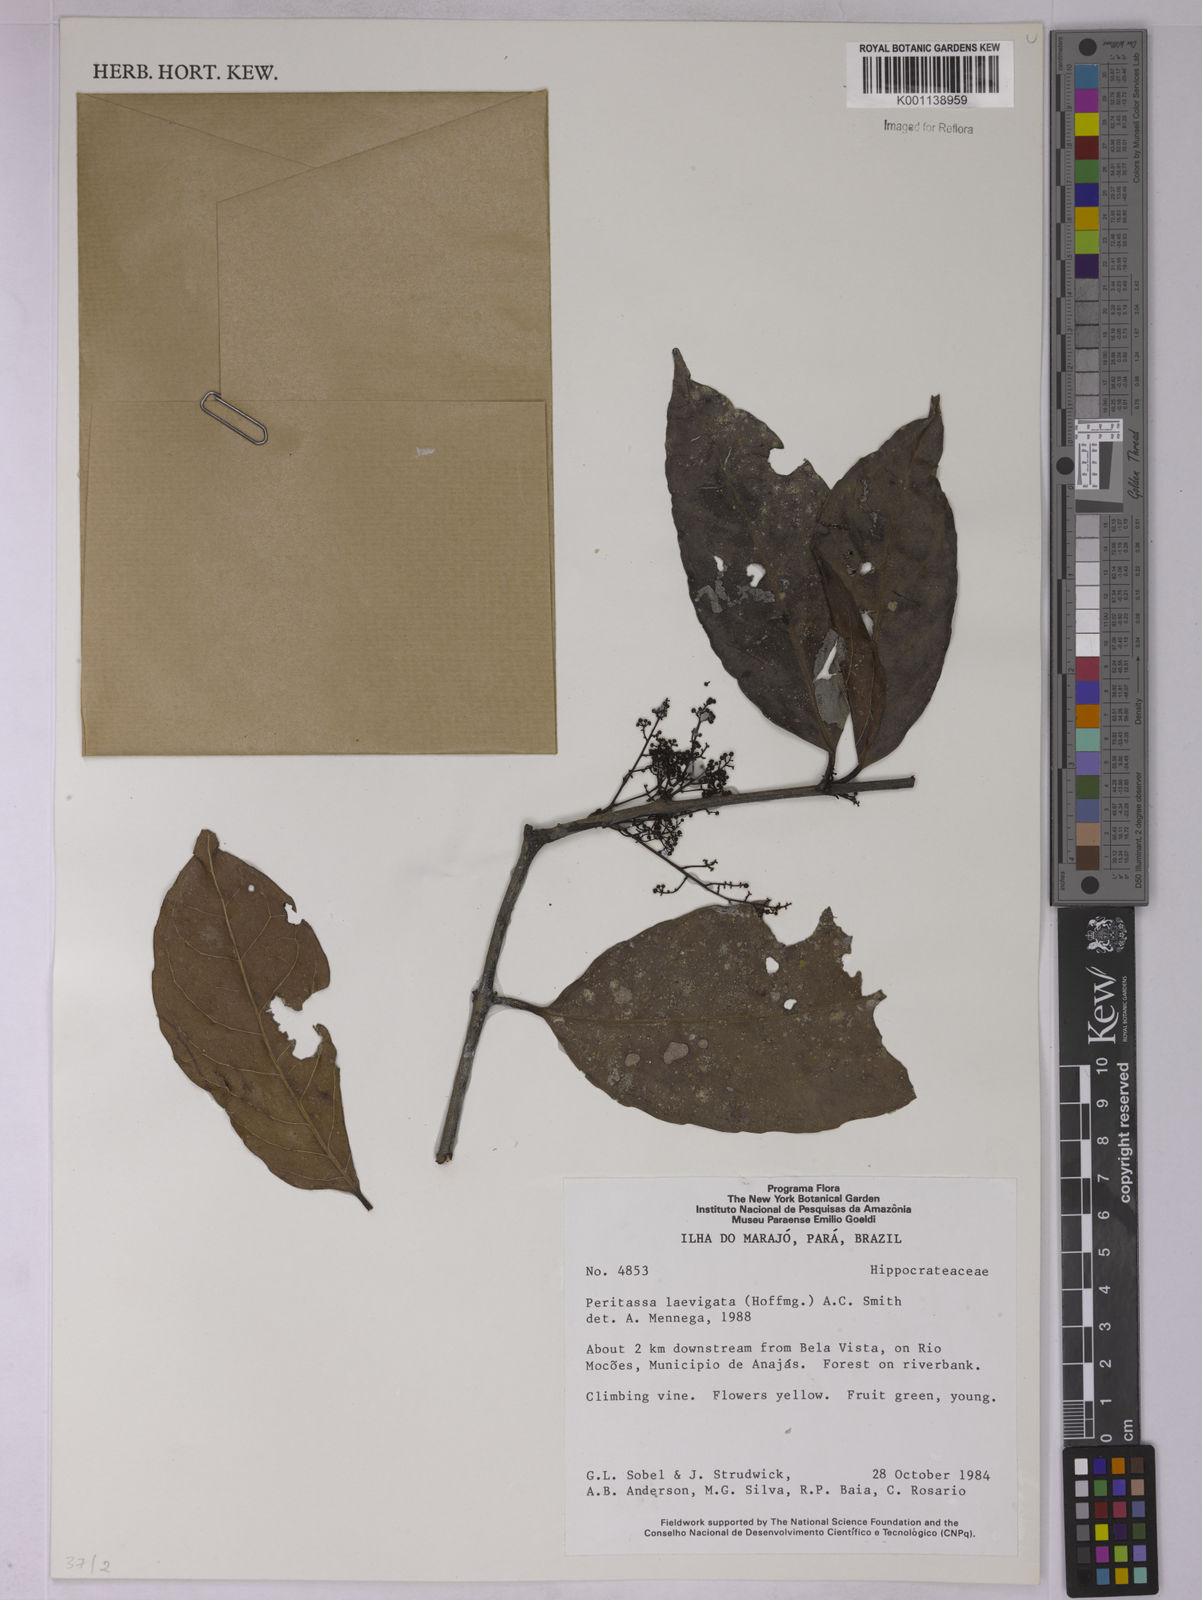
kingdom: Plantae
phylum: Tracheophyta
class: Magnoliopsida
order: Celastrales
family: Celastraceae
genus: Peritassa
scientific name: Peritassa laevigata
